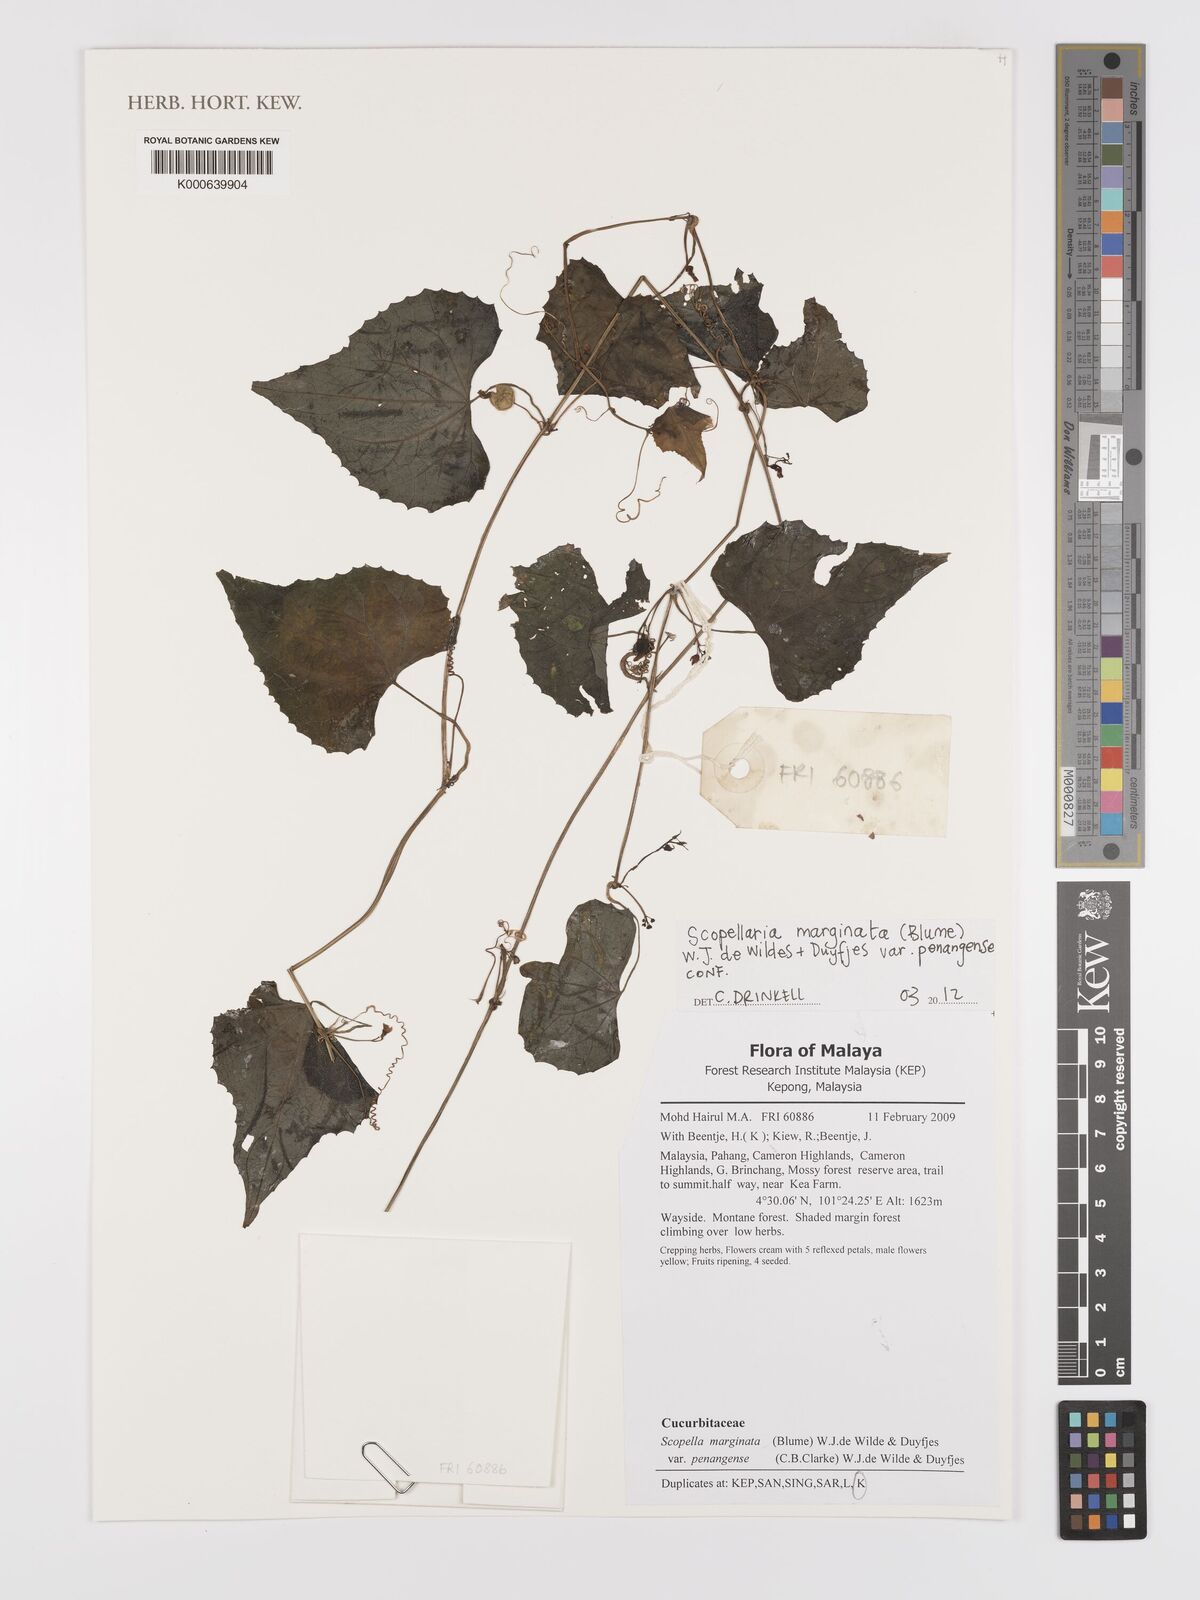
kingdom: Plantae
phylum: Tracheophyta
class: Magnoliopsida
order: Cucurbitales
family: Cucurbitaceae
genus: Scopellaria
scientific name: Scopellaria marginata
